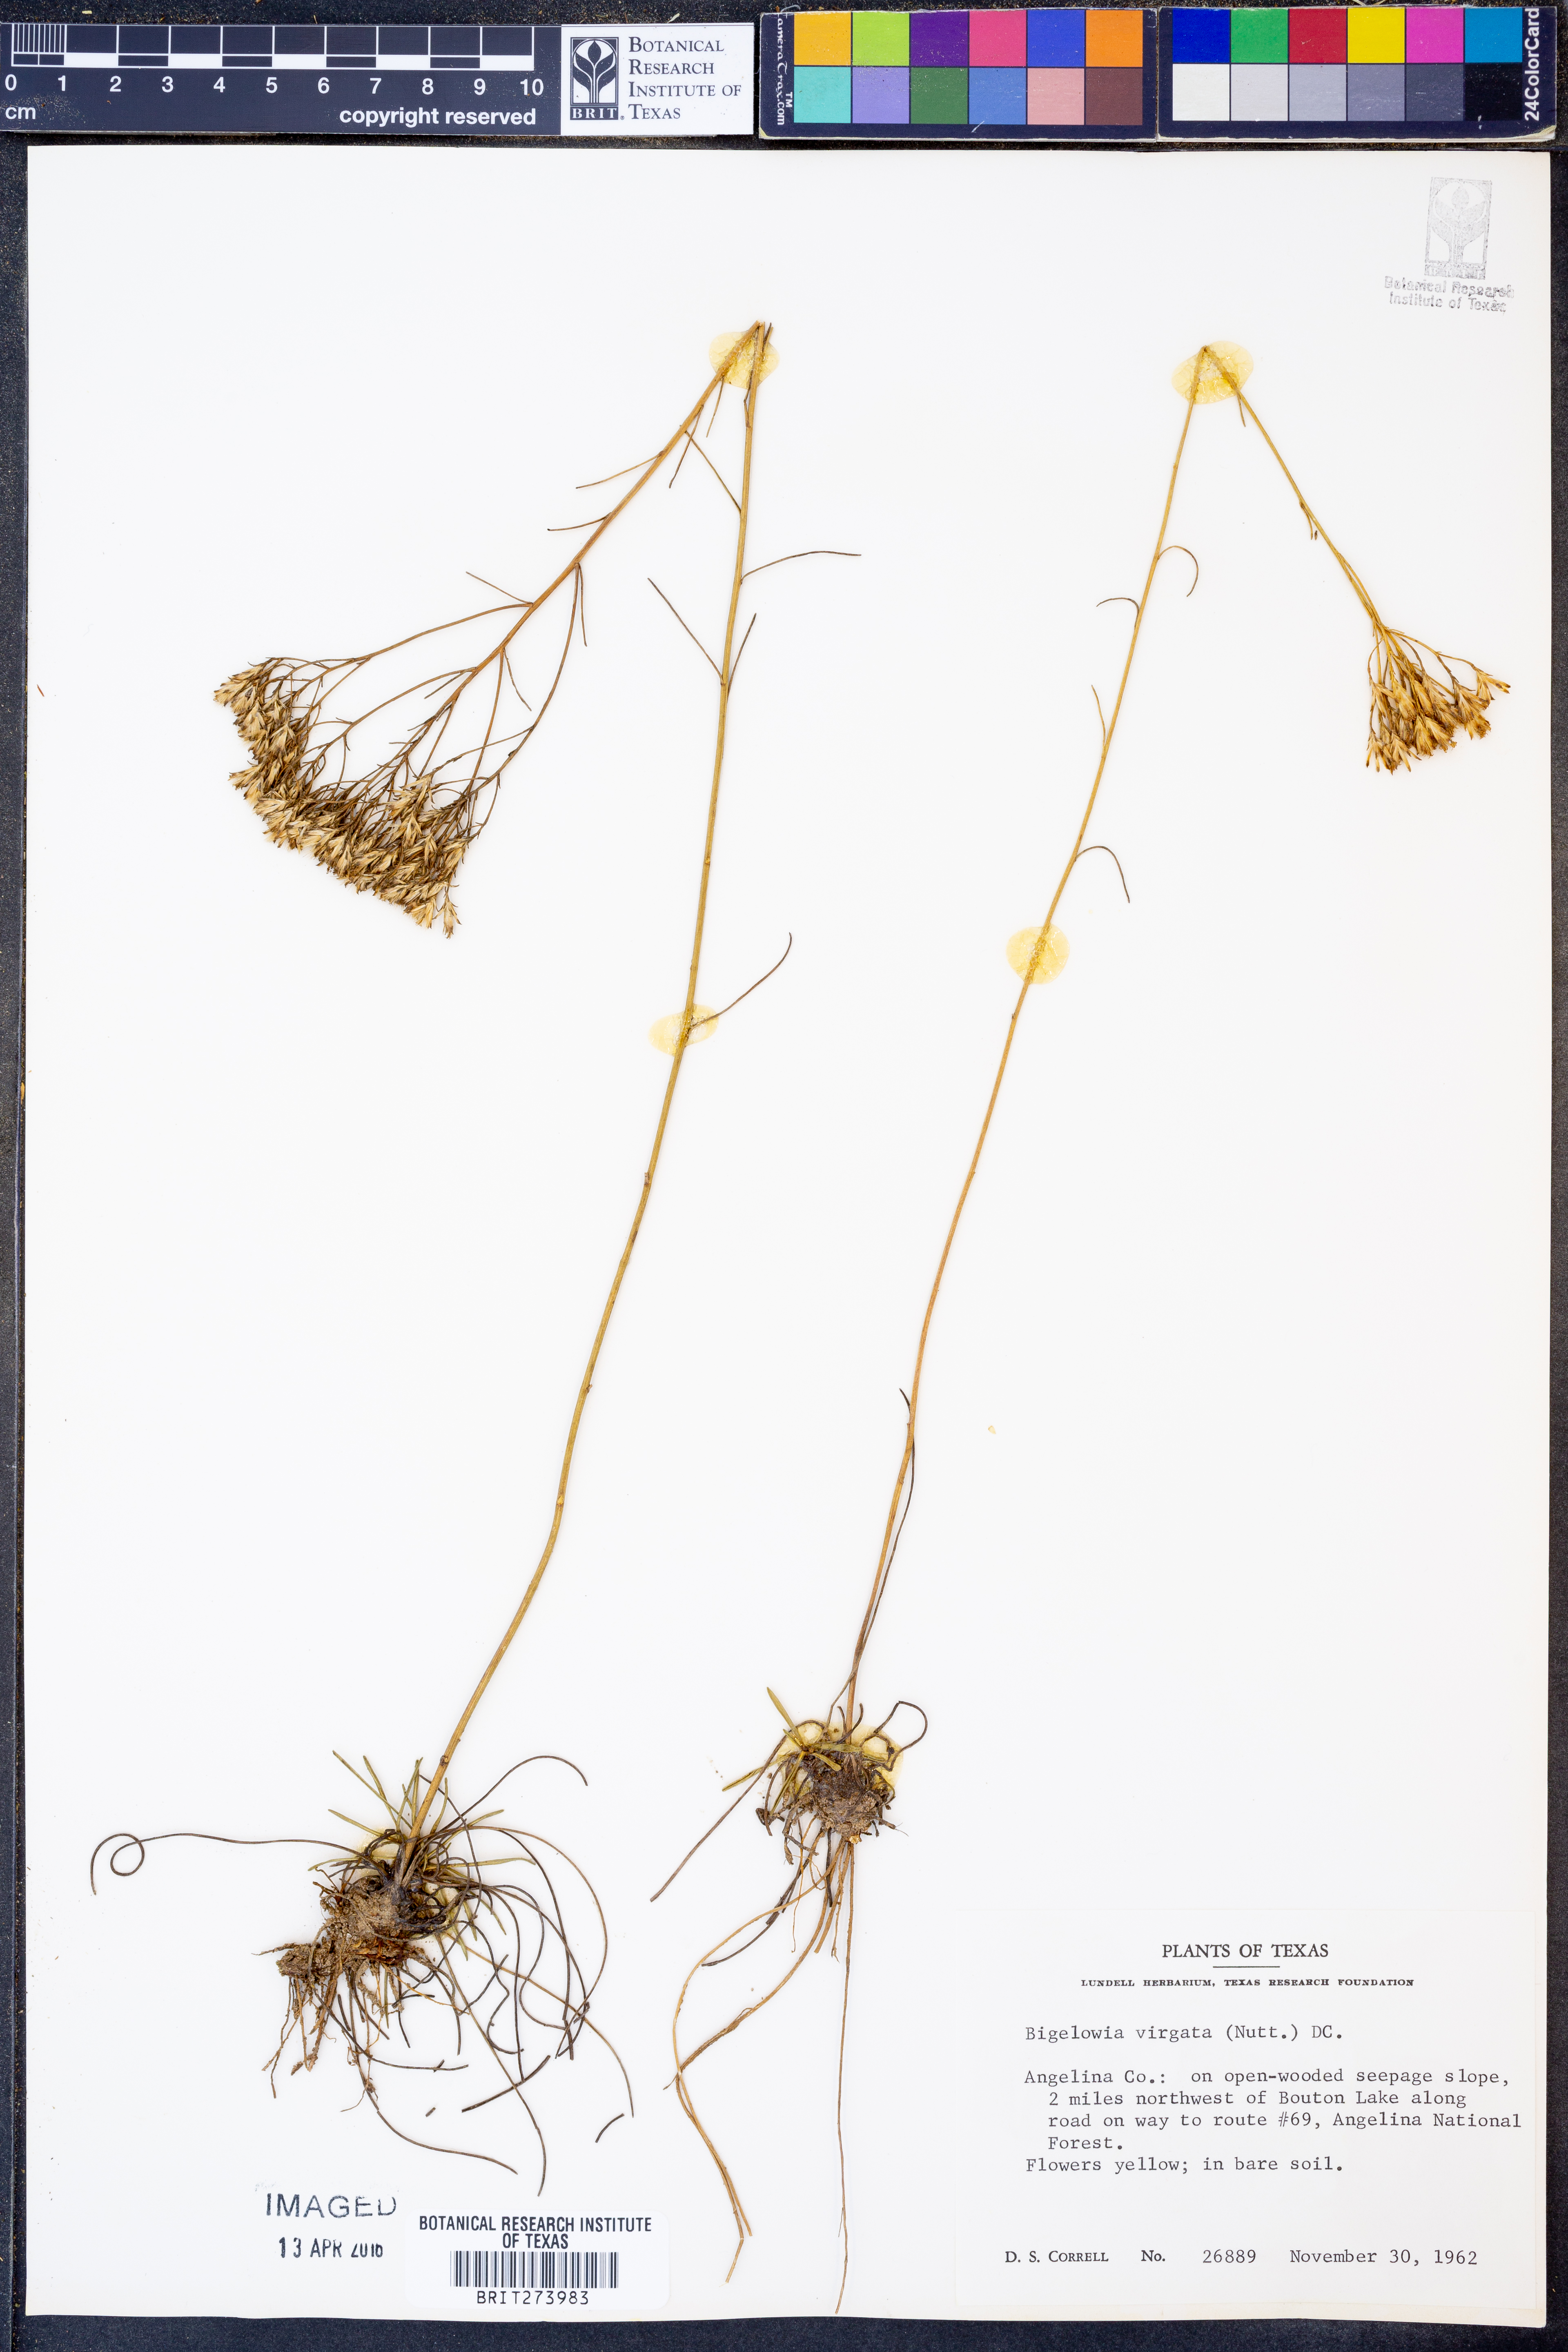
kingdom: Plantae
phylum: Tracheophyta
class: Magnoliopsida
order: Asterales
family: Asteraceae
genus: Bigelowia
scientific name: Bigelowia nudata
